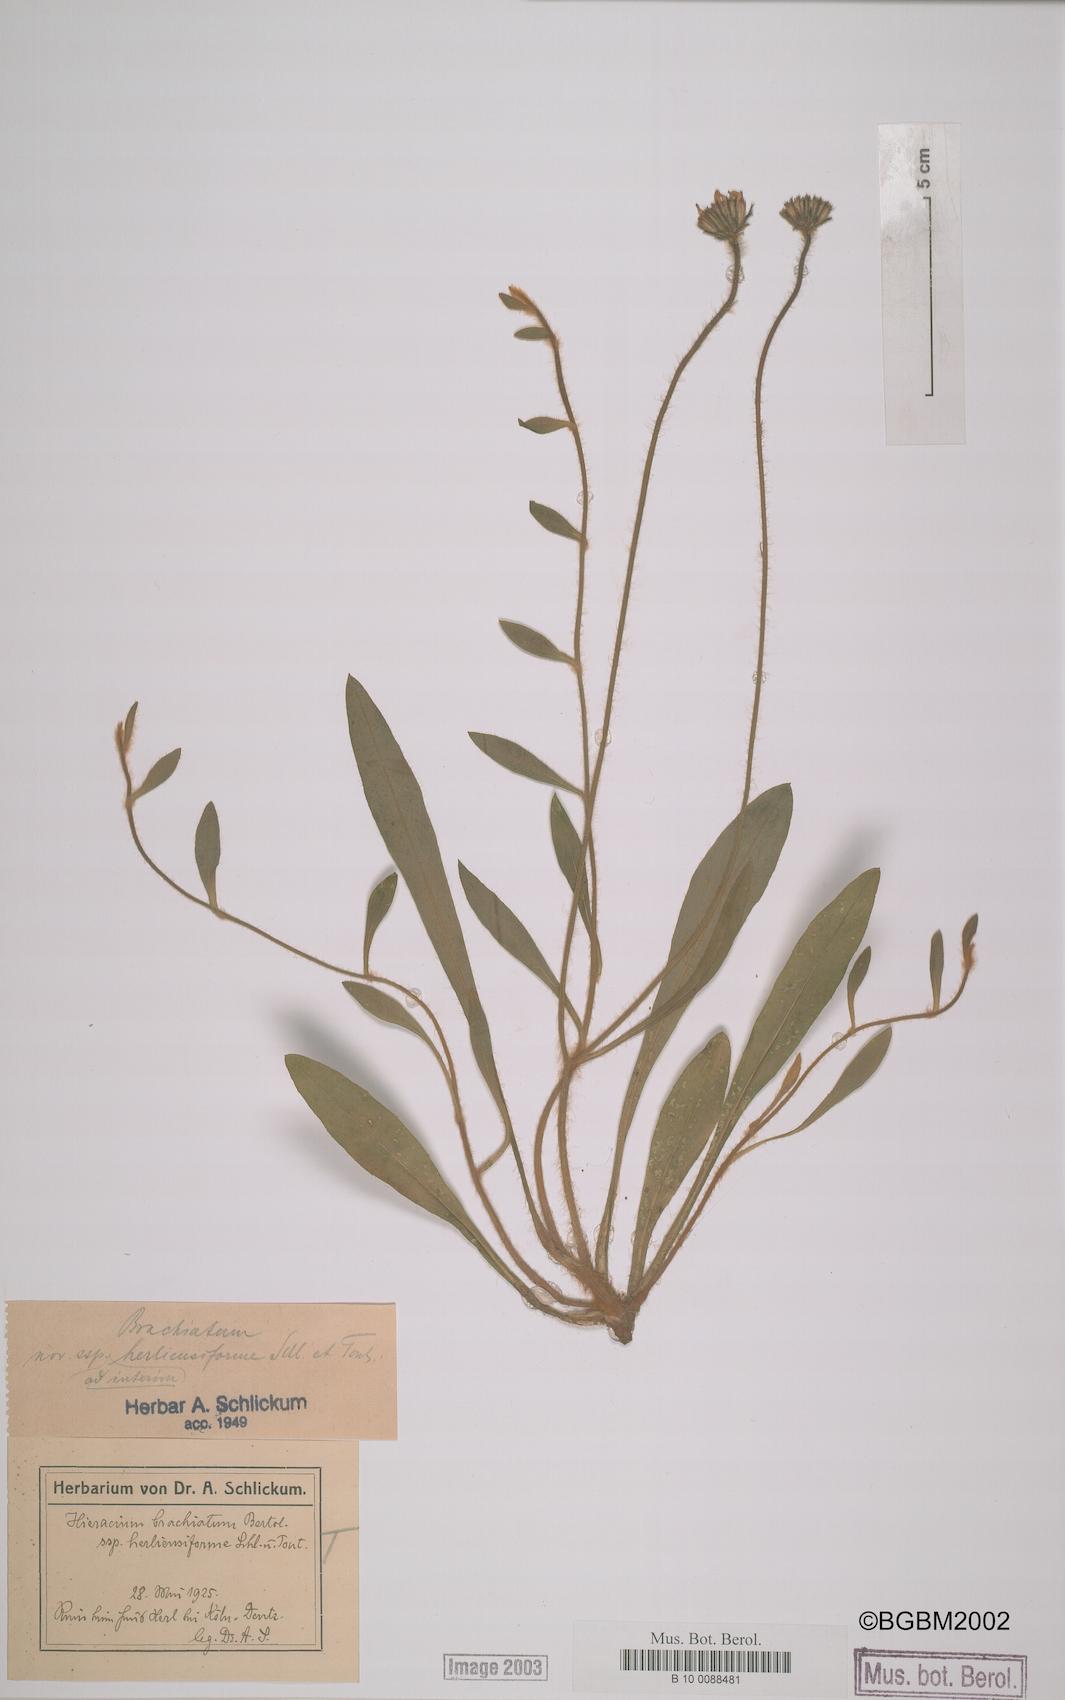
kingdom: Plantae
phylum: Tracheophyta
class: Magnoliopsida
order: Asterales
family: Asteraceae
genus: Pilosella
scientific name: Pilosella acutifolia
